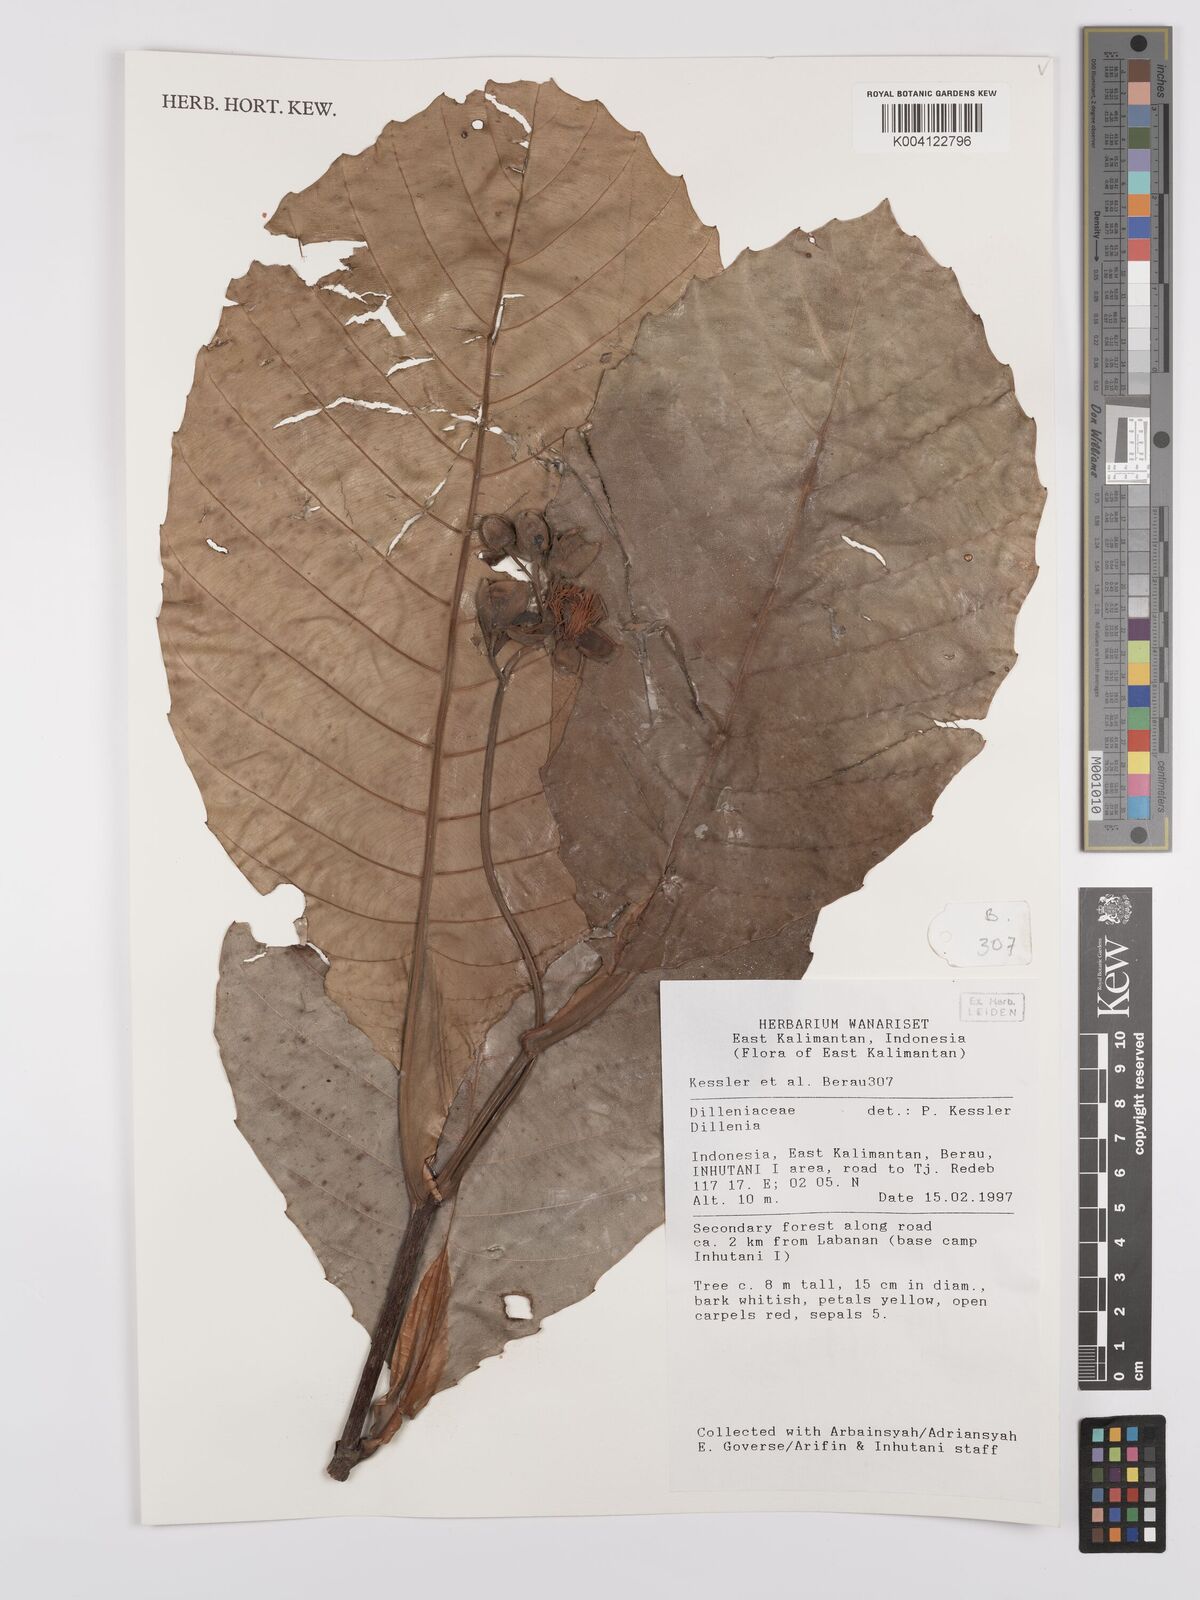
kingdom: Plantae
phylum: Tracheophyta
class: Magnoliopsida
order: Dilleniales
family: Dilleniaceae
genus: Dillenia
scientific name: Dillenia
